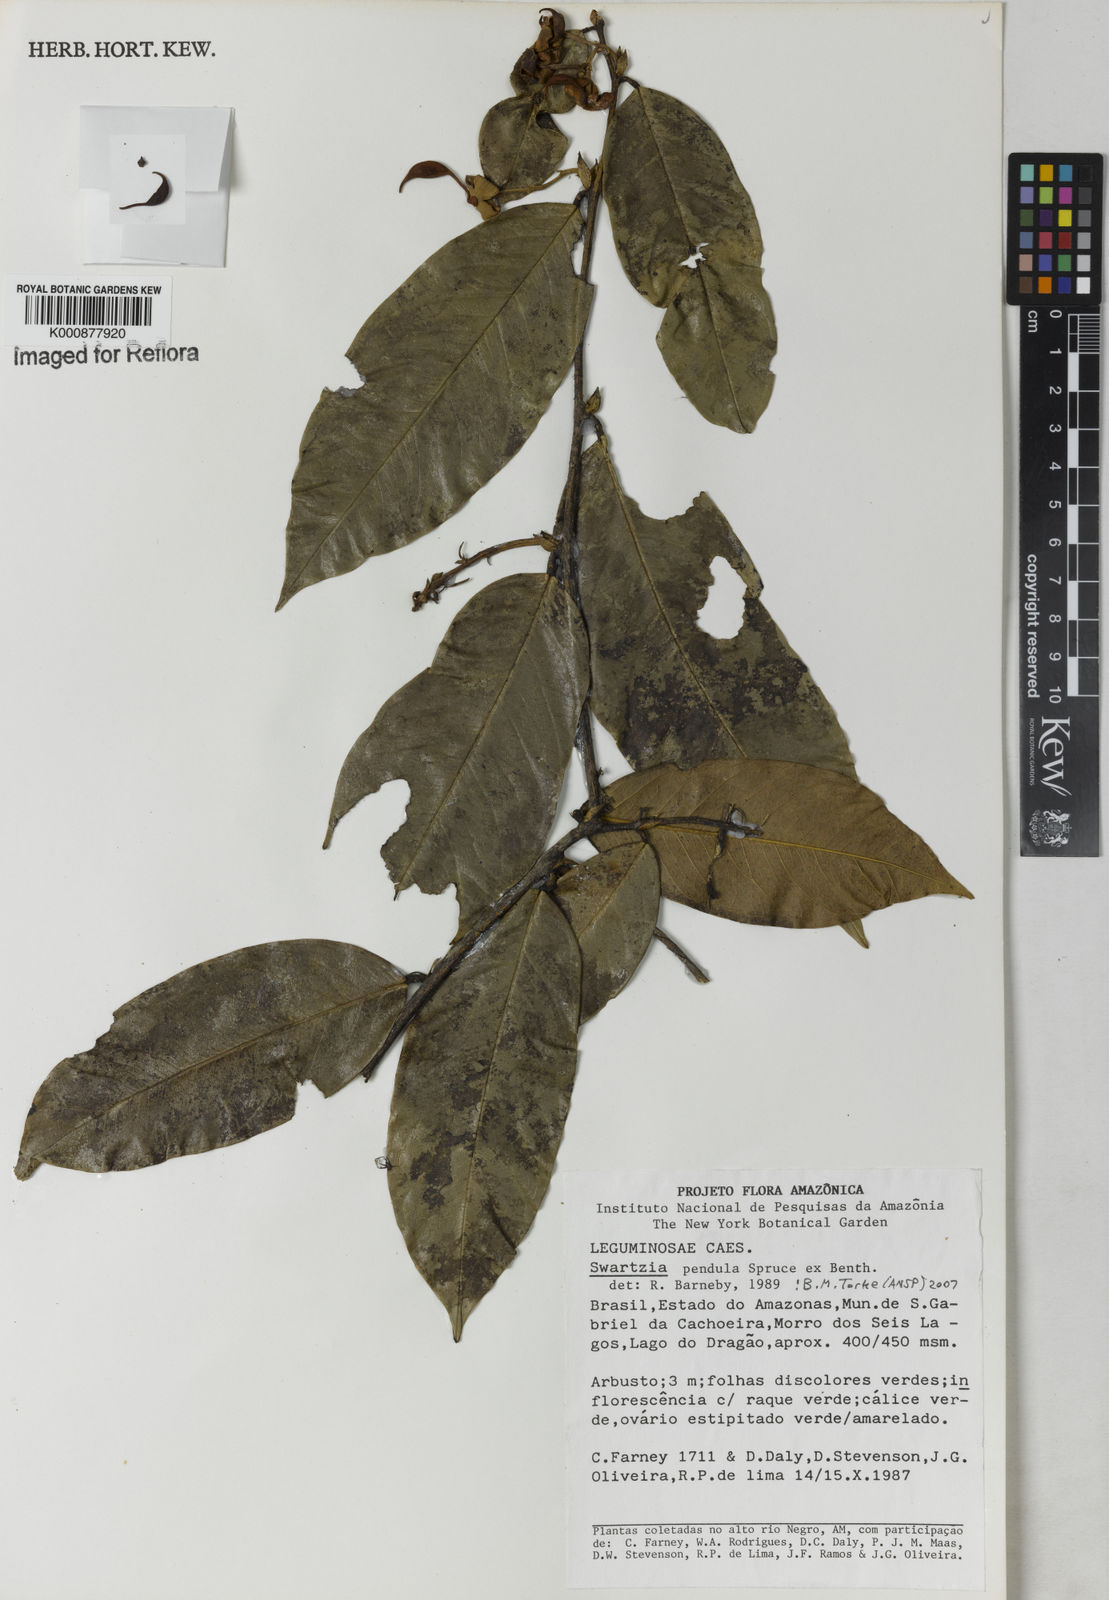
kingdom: Plantae
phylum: Tracheophyta
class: Magnoliopsida
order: Fabales
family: Fabaceae
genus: Swartzia
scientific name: Swartzia pendula
